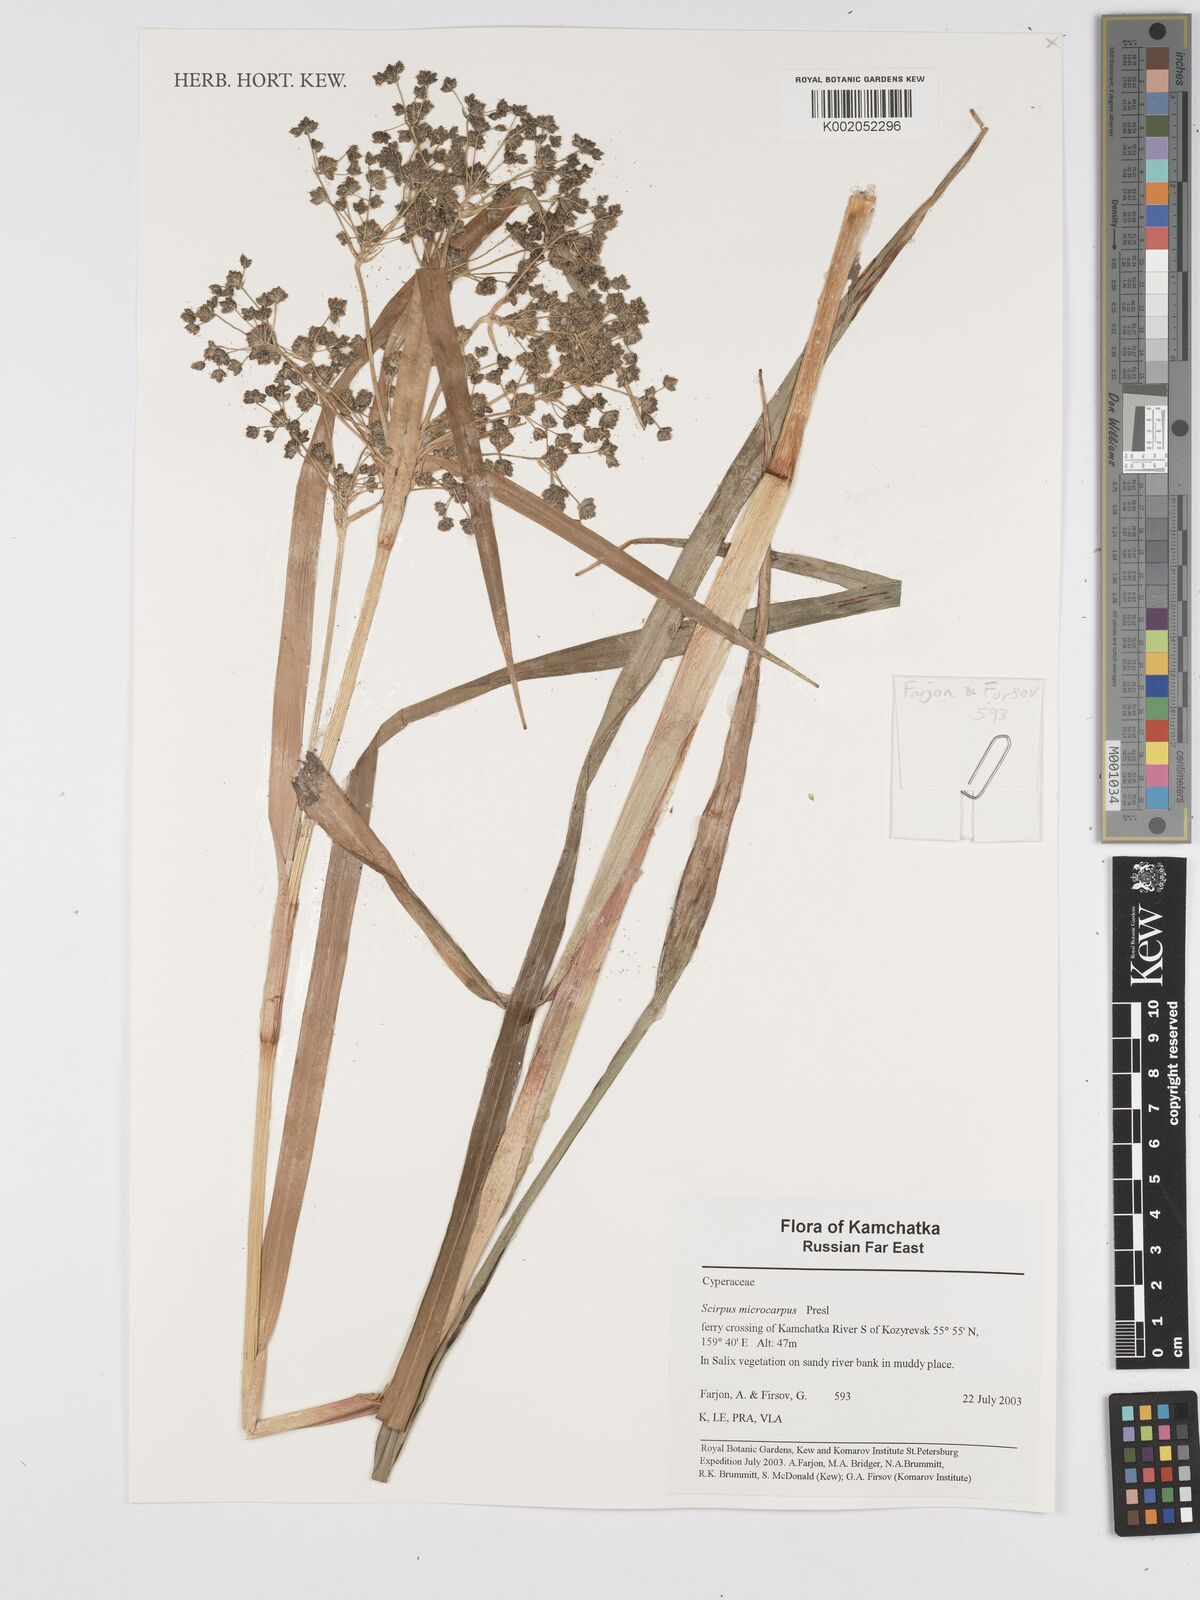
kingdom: Plantae
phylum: Tracheophyta
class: Liliopsida
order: Poales
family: Cyperaceae
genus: Scirpus
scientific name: Scirpus microcarpus
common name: Panicled bulrush
